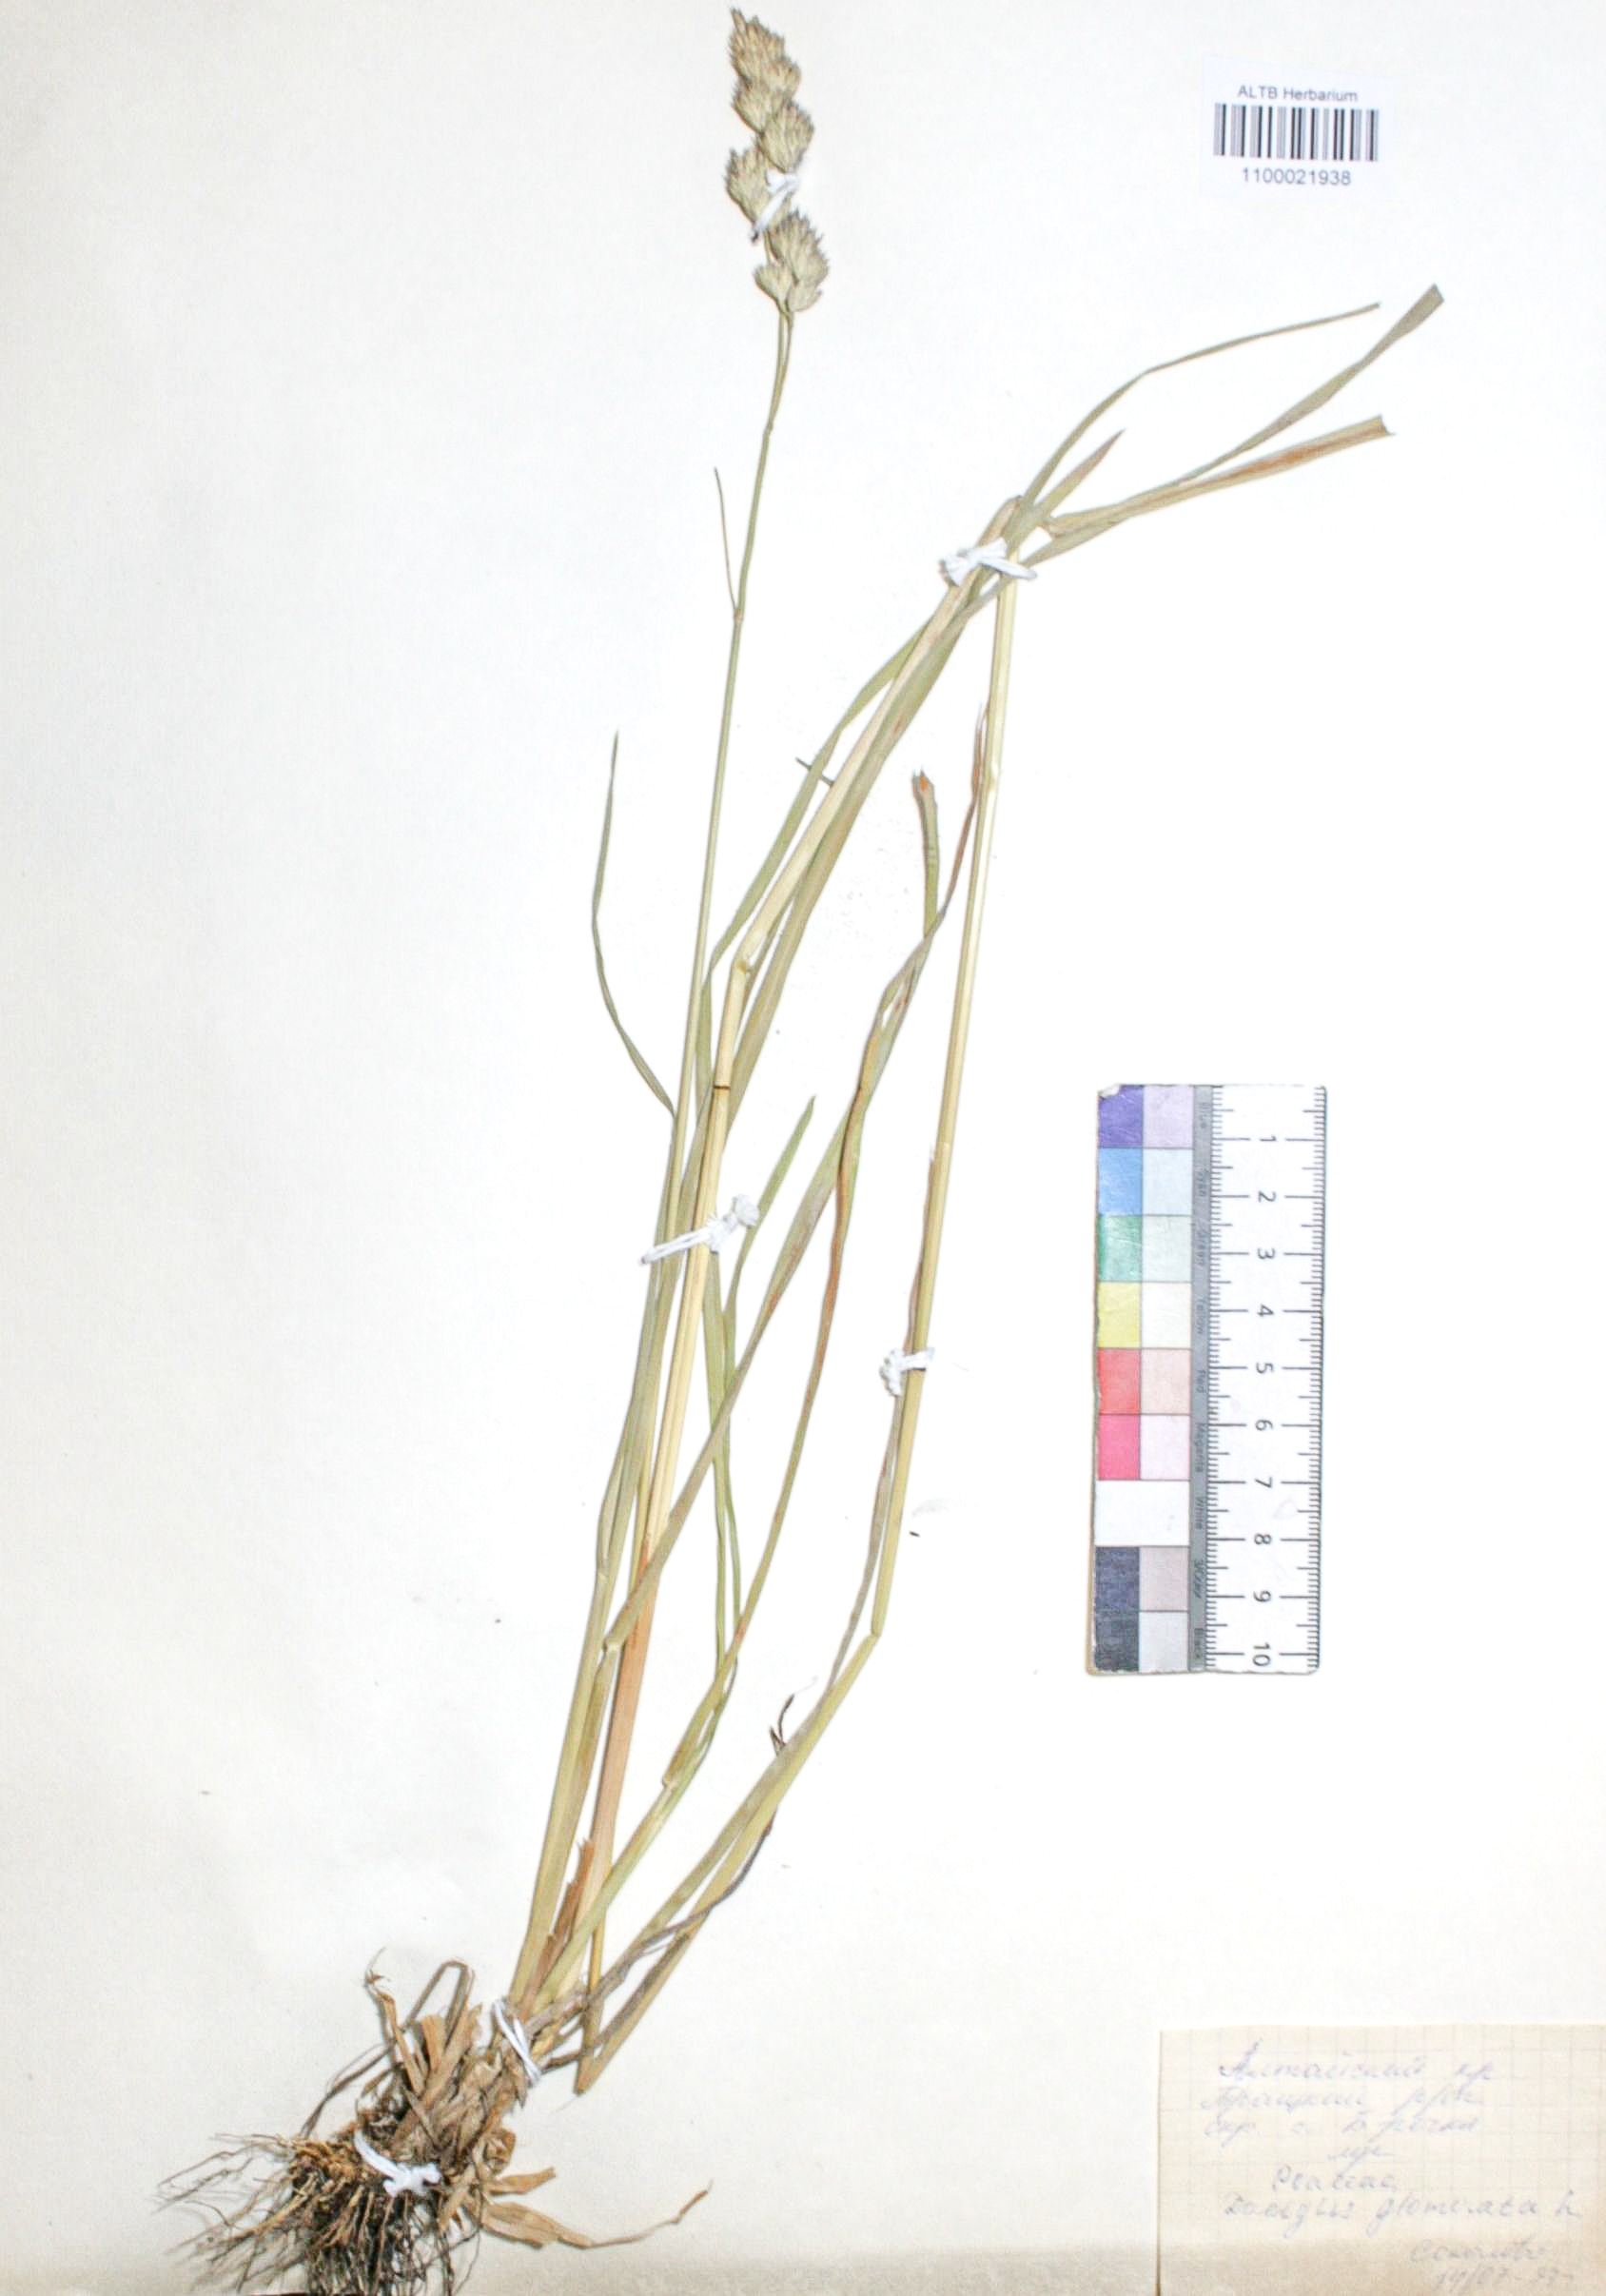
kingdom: Plantae
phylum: Tracheophyta
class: Liliopsida
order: Poales
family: Poaceae
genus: Dactylis
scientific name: Dactylis glomerata
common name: Orchardgrass
